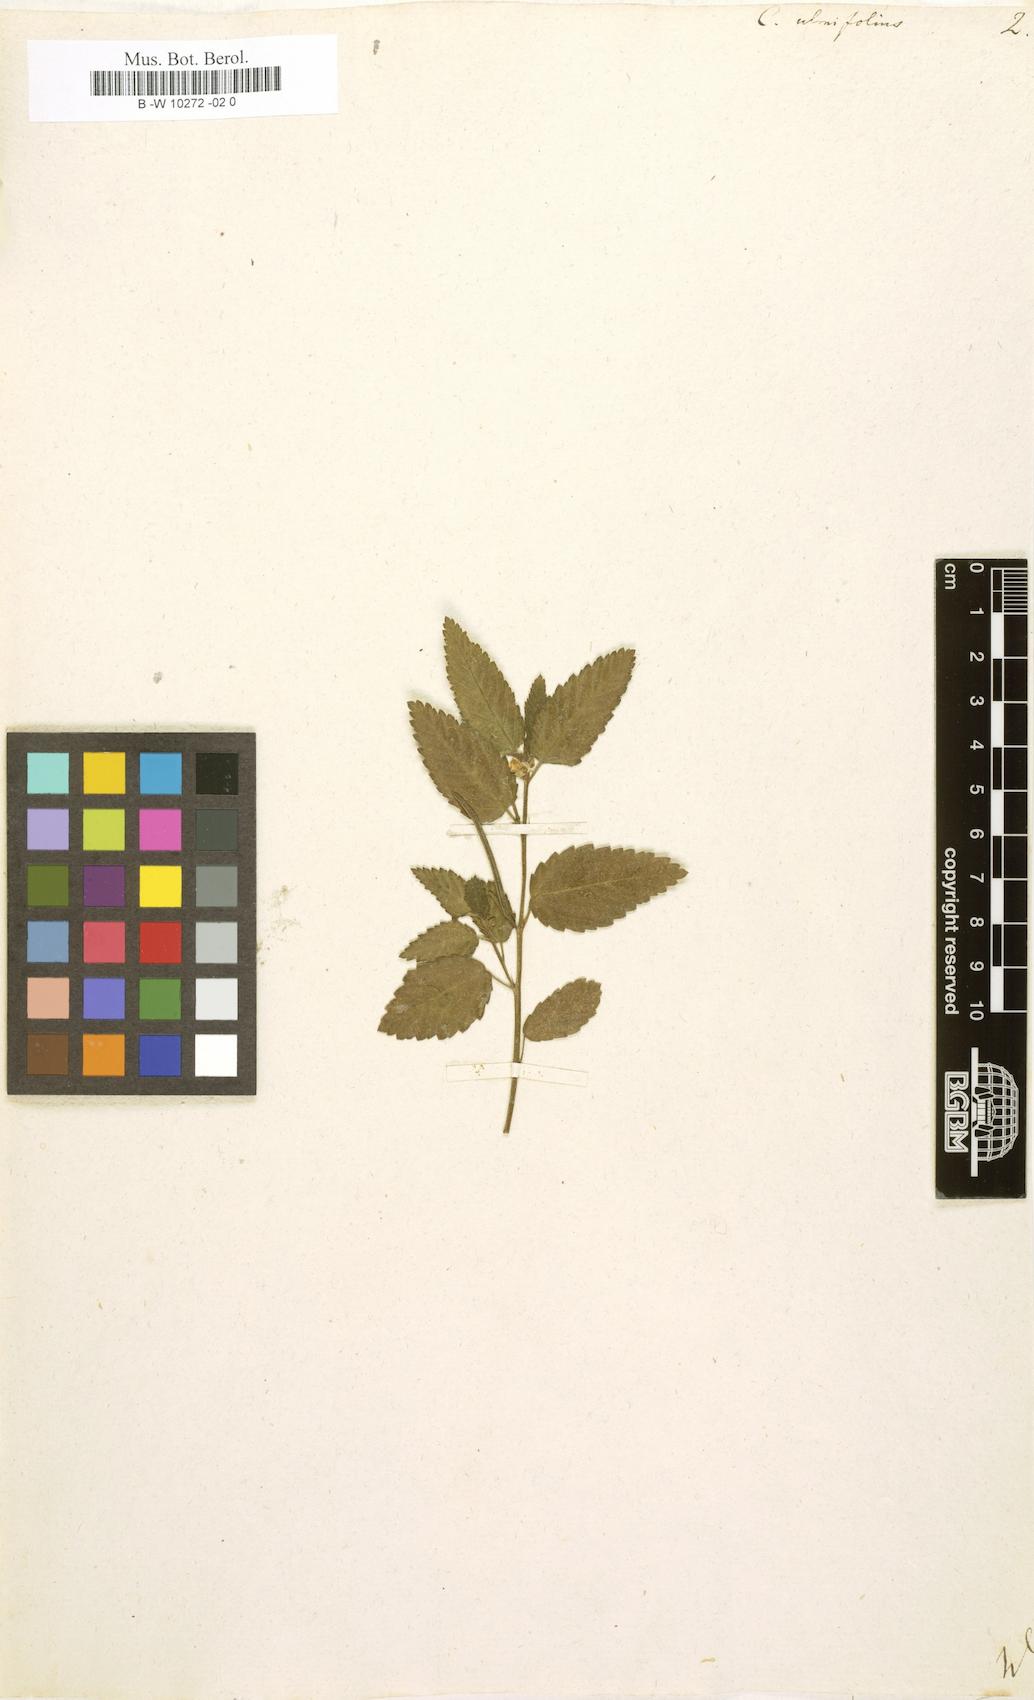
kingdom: Plantae
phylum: Tracheophyta
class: Magnoliopsida
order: Malvales
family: Malvaceae
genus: Corchorus
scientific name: Corchorus
